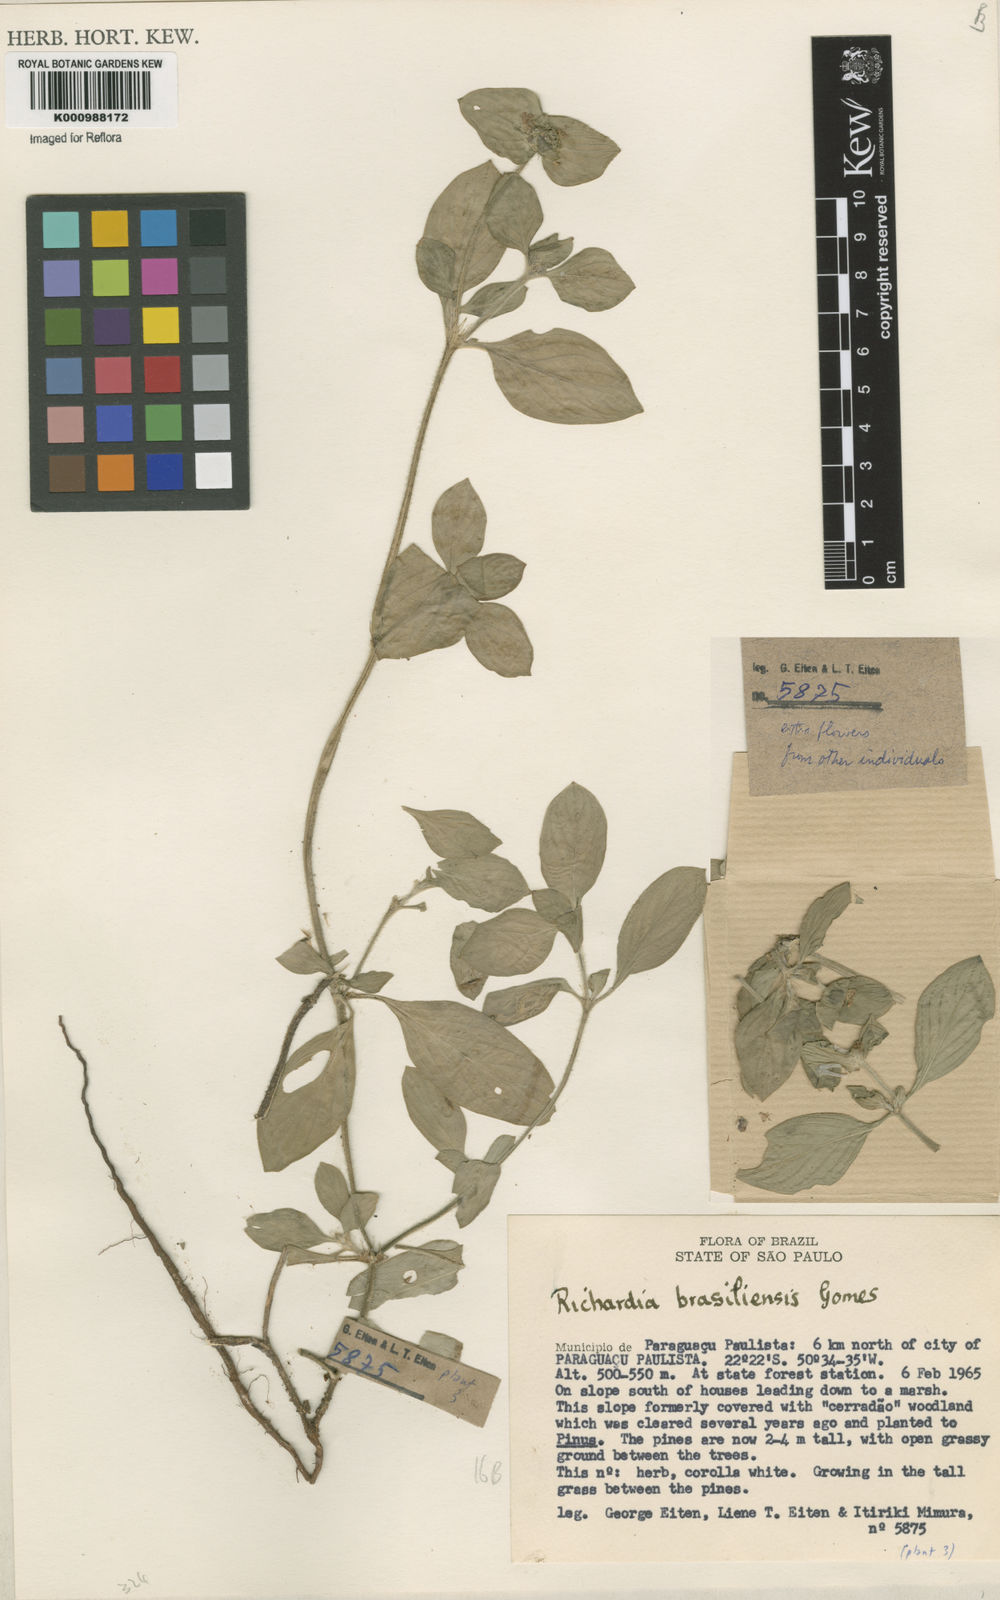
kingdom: Plantae
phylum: Tracheophyta
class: Magnoliopsida
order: Gentianales
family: Rubiaceae
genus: Richardia
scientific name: Richardia brasiliensis
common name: Tropical mexican clover
